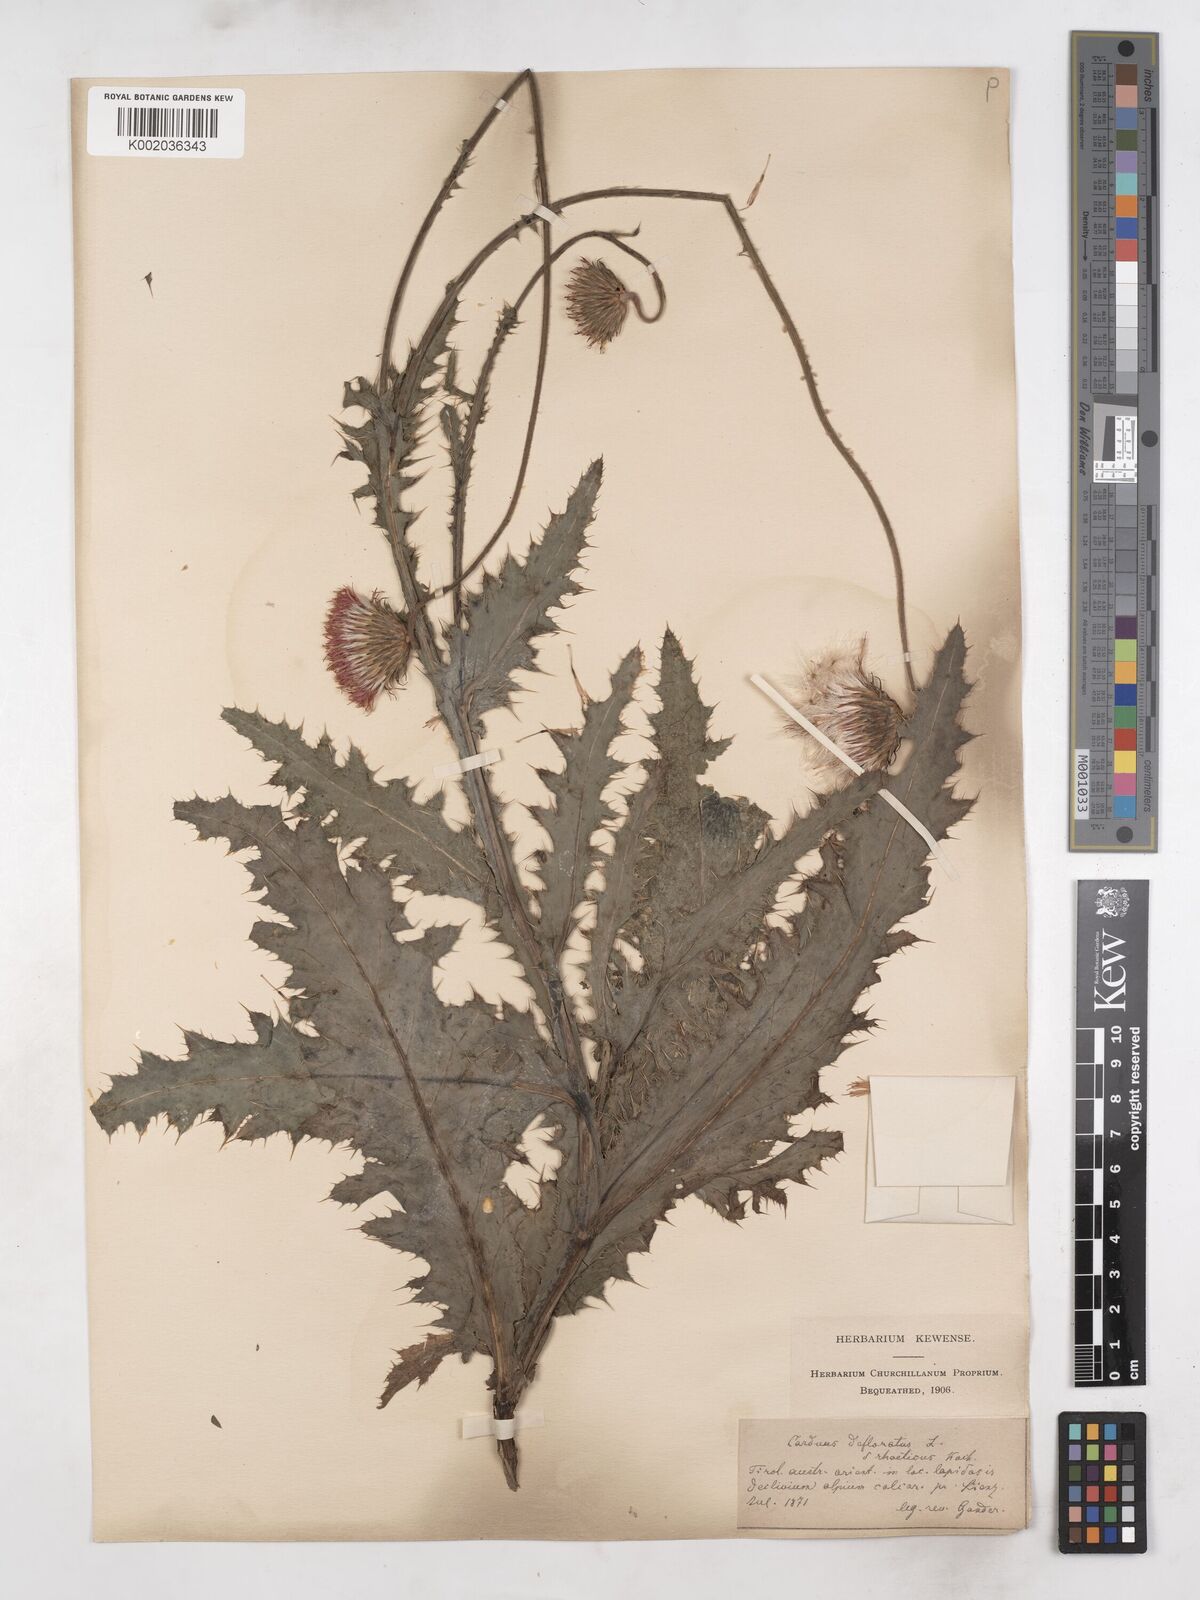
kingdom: Plantae
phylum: Tracheophyta
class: Magnoliopsida
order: Asterales
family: Asteraceae
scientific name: Asteraceae
